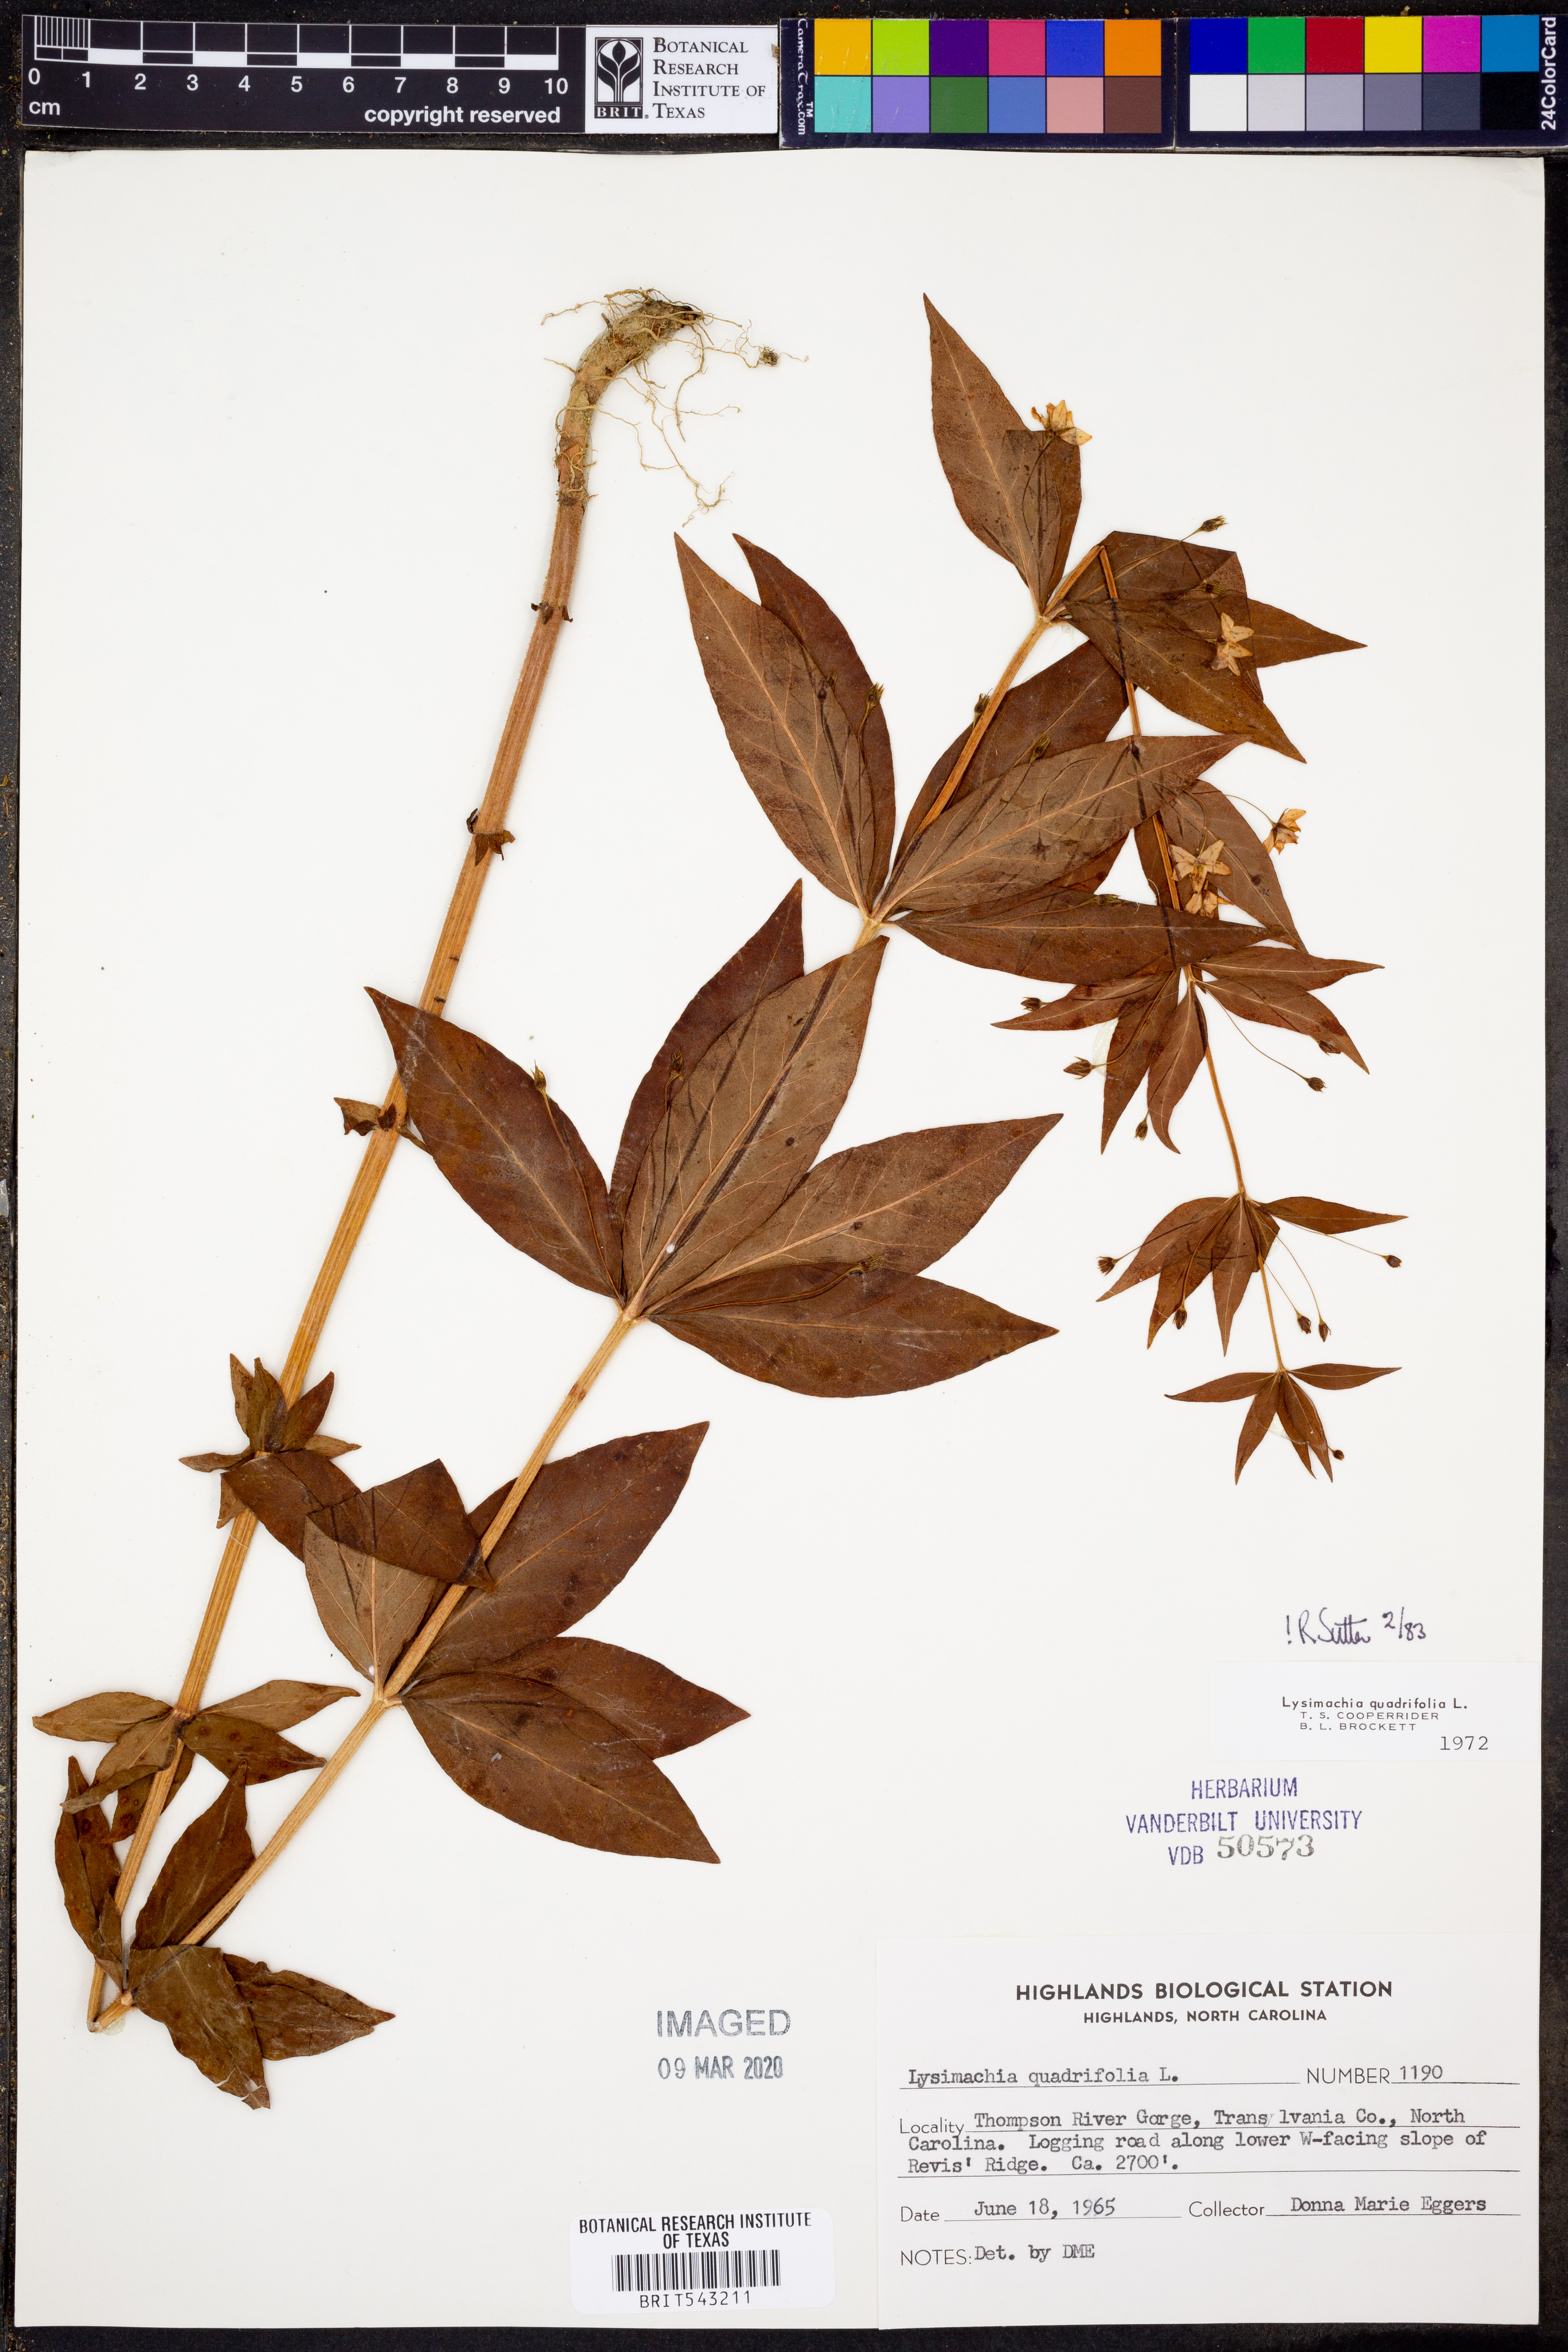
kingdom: Plantae
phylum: Tracheophyta
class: Magnoliopsida
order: Ericales
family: Primulaceae
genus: Lysimachia
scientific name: Lysimachia quadrifolia
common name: Whorled loosestrife
